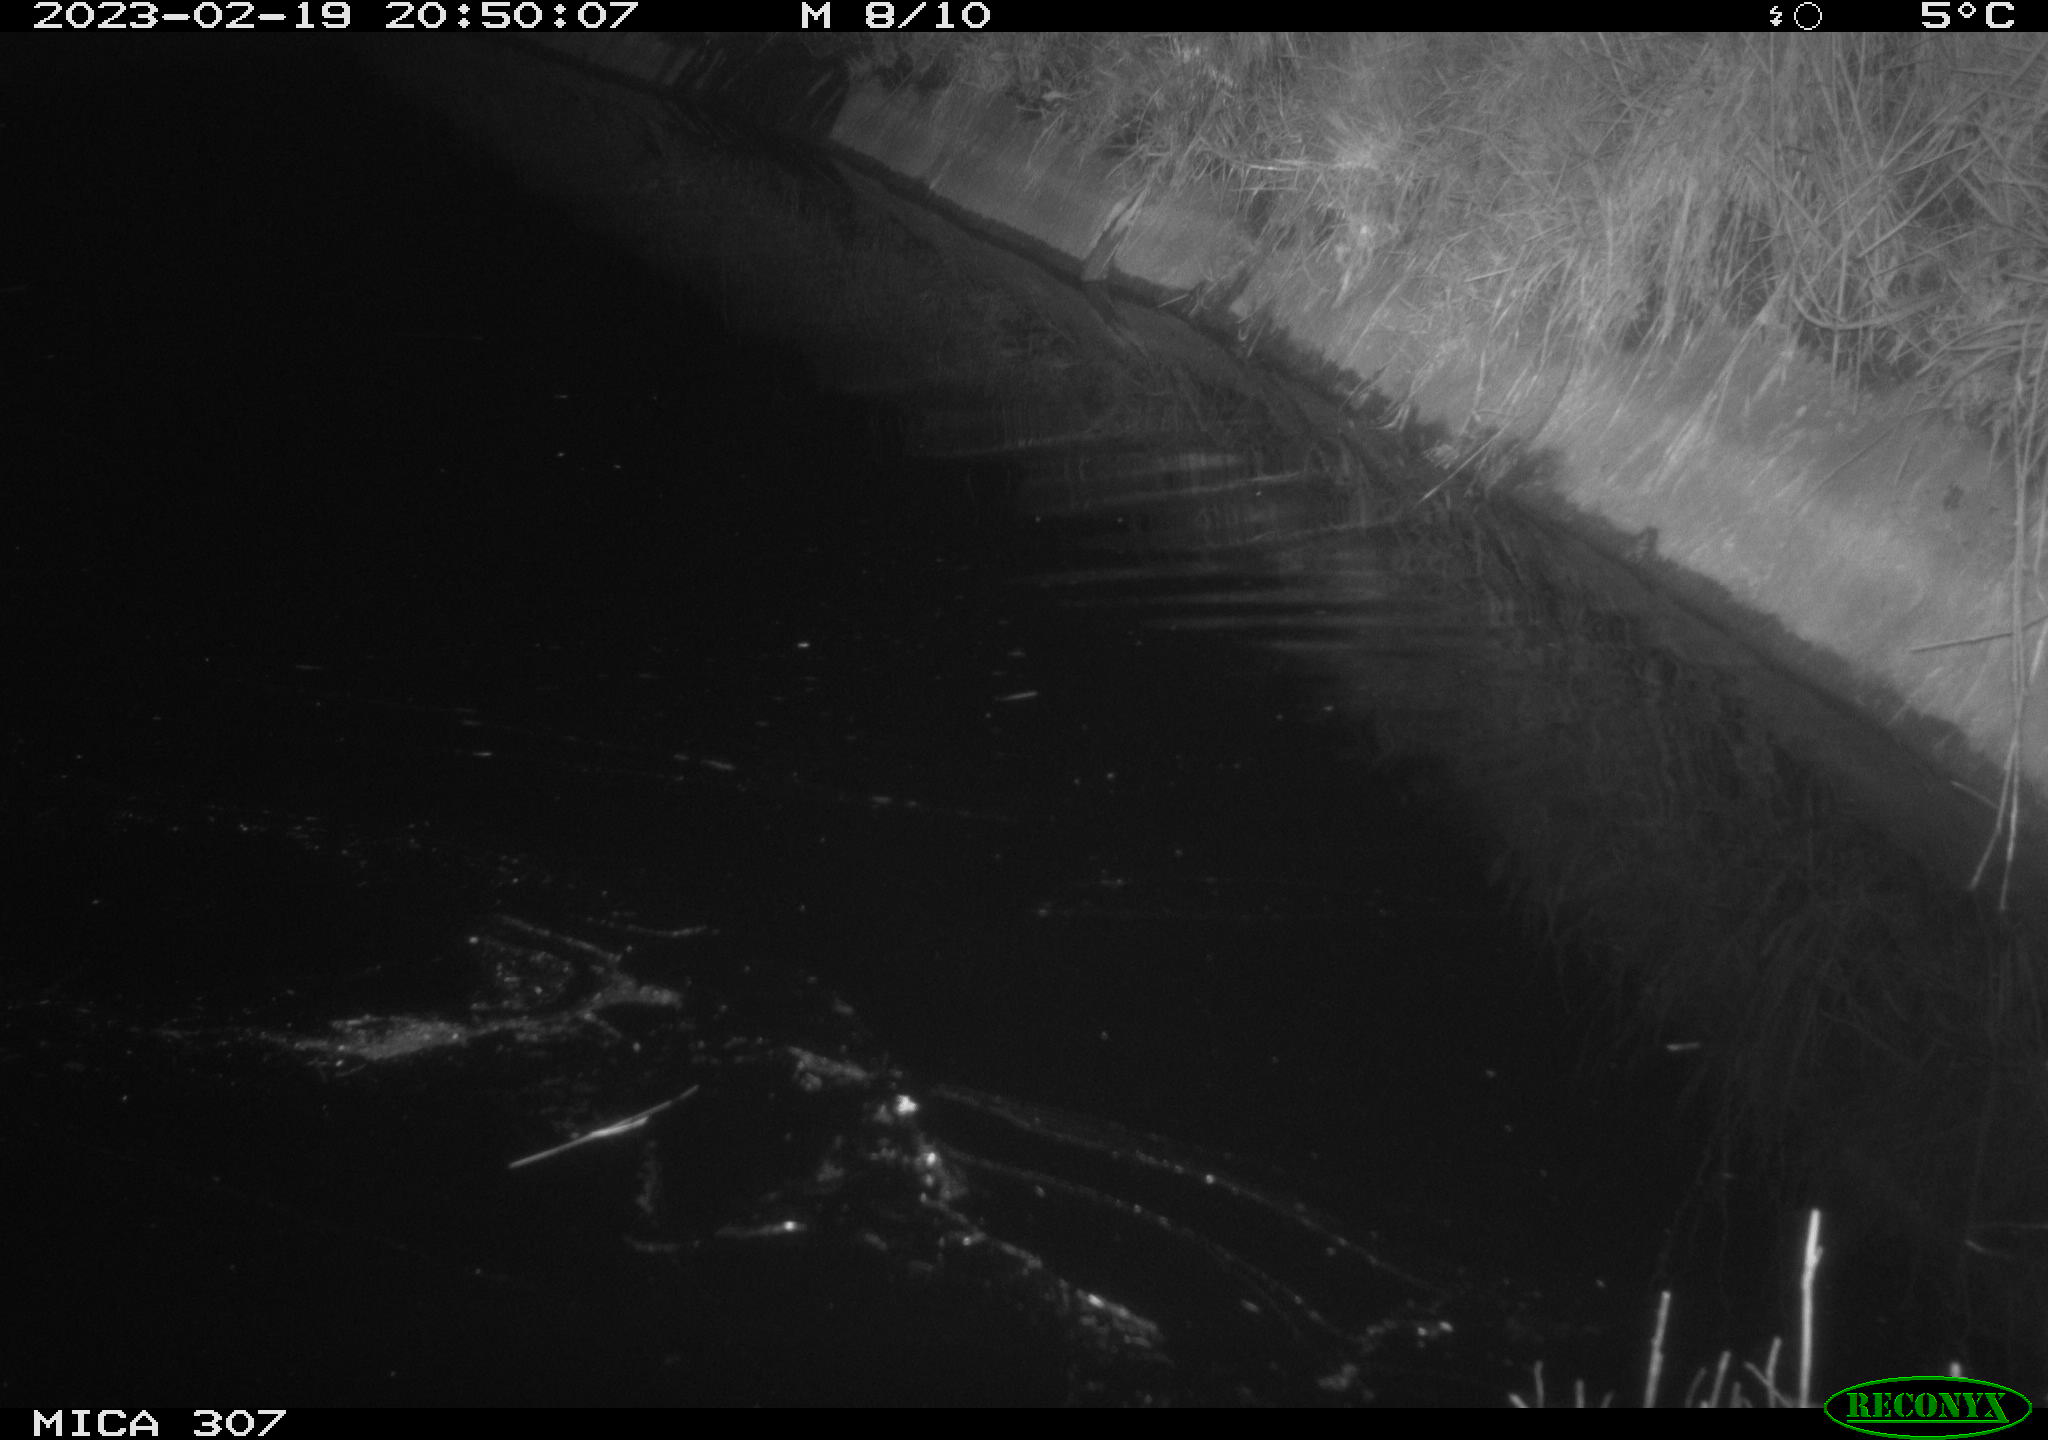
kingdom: Animalia
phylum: Chordata
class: Mammalia
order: Rodentia
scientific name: Rodentia
